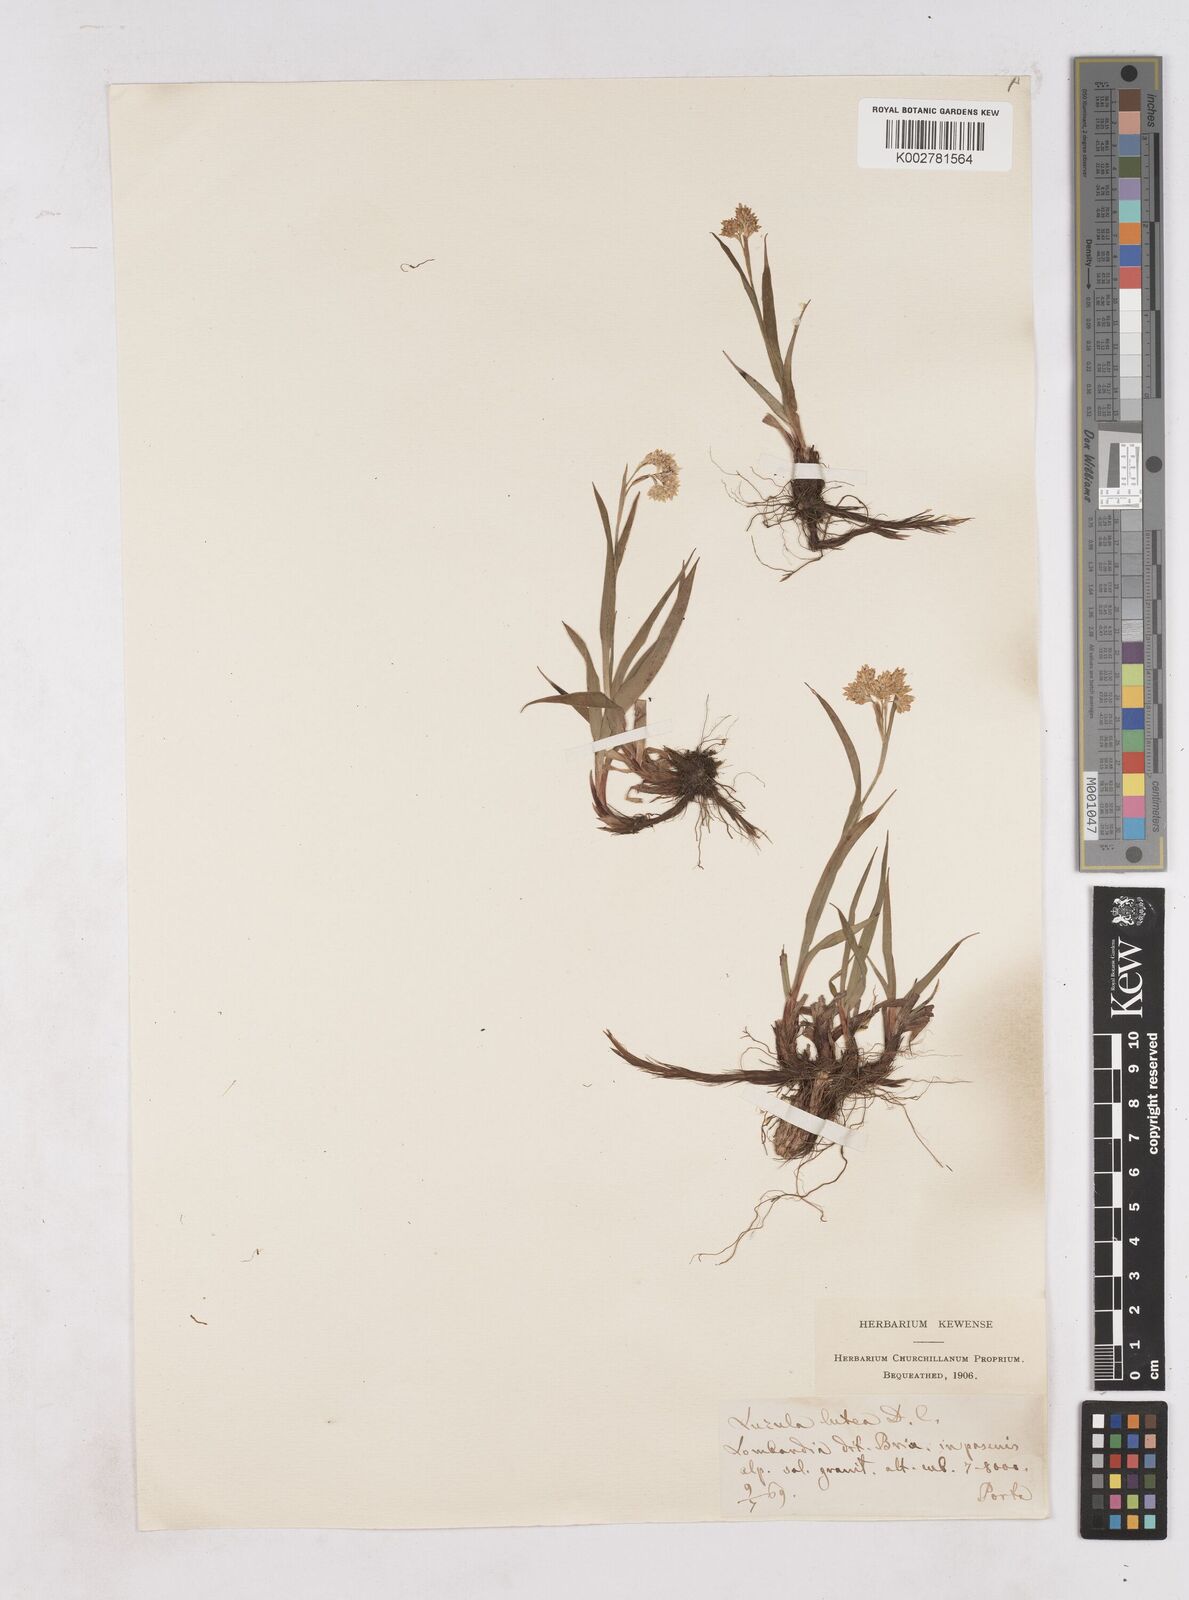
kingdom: Plantae
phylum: Tracheophyta
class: Liliopsida
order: Poales
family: Juncaceae
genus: Luzula
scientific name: Luzula lutea
